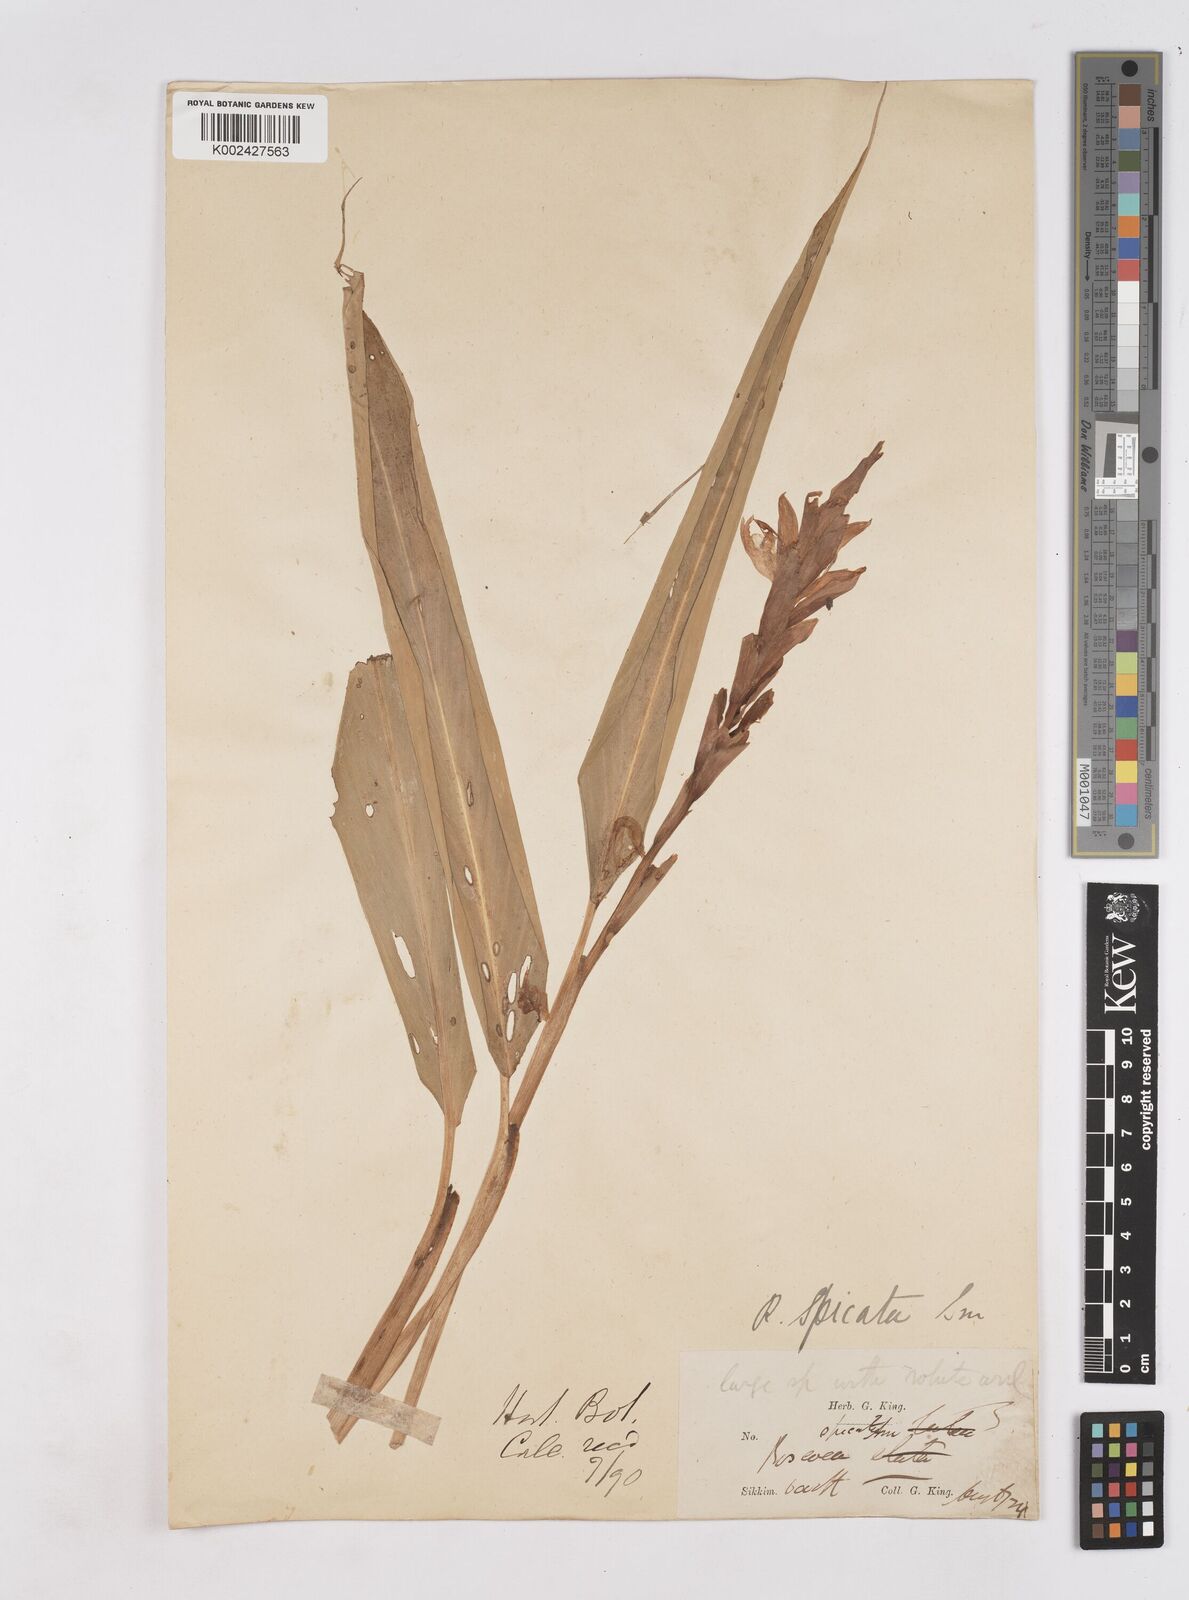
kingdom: Plantae
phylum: Tracheophyta
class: Liliopsida
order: Zingiberales
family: Zingiberaceae
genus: Cautleya
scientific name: Cautleya spicata
